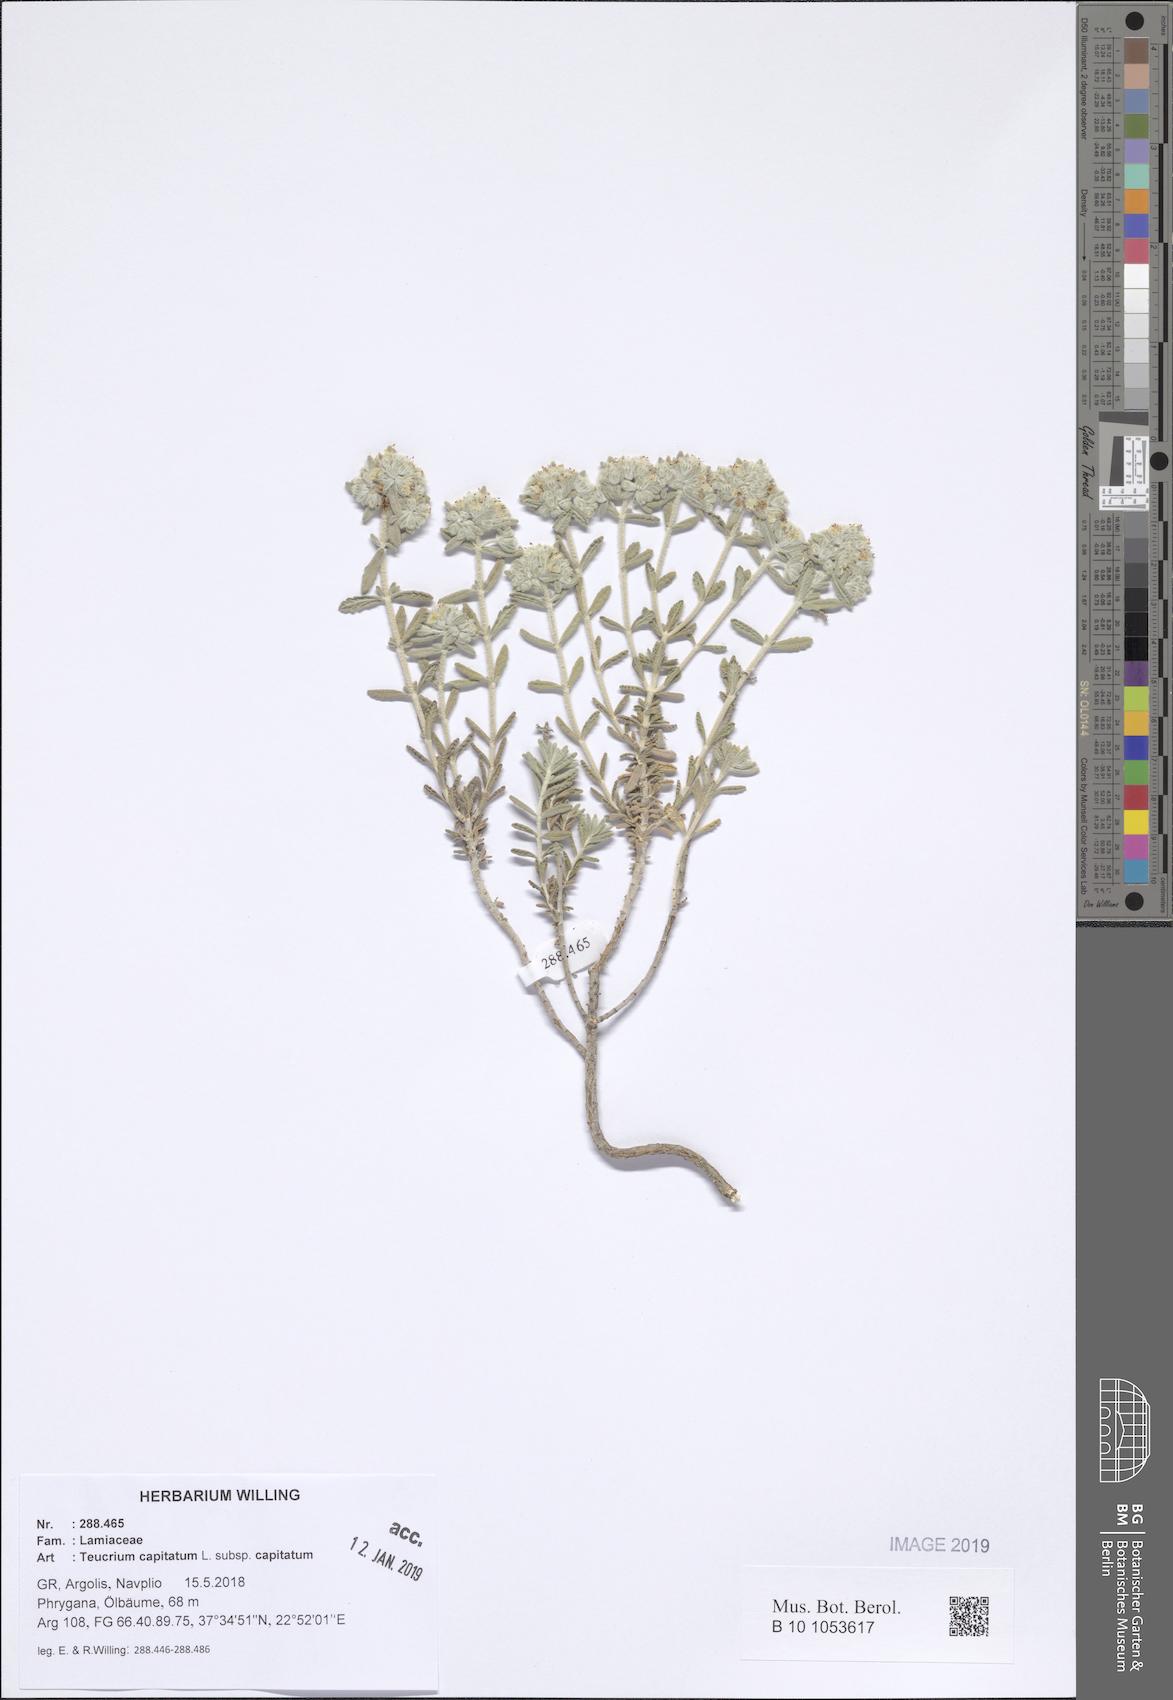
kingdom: Plantae
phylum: Tracheophyta
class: Magnoliopsida
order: Lamiales
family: Lamiaceae
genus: Teucrium
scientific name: Teucrium capitatum
